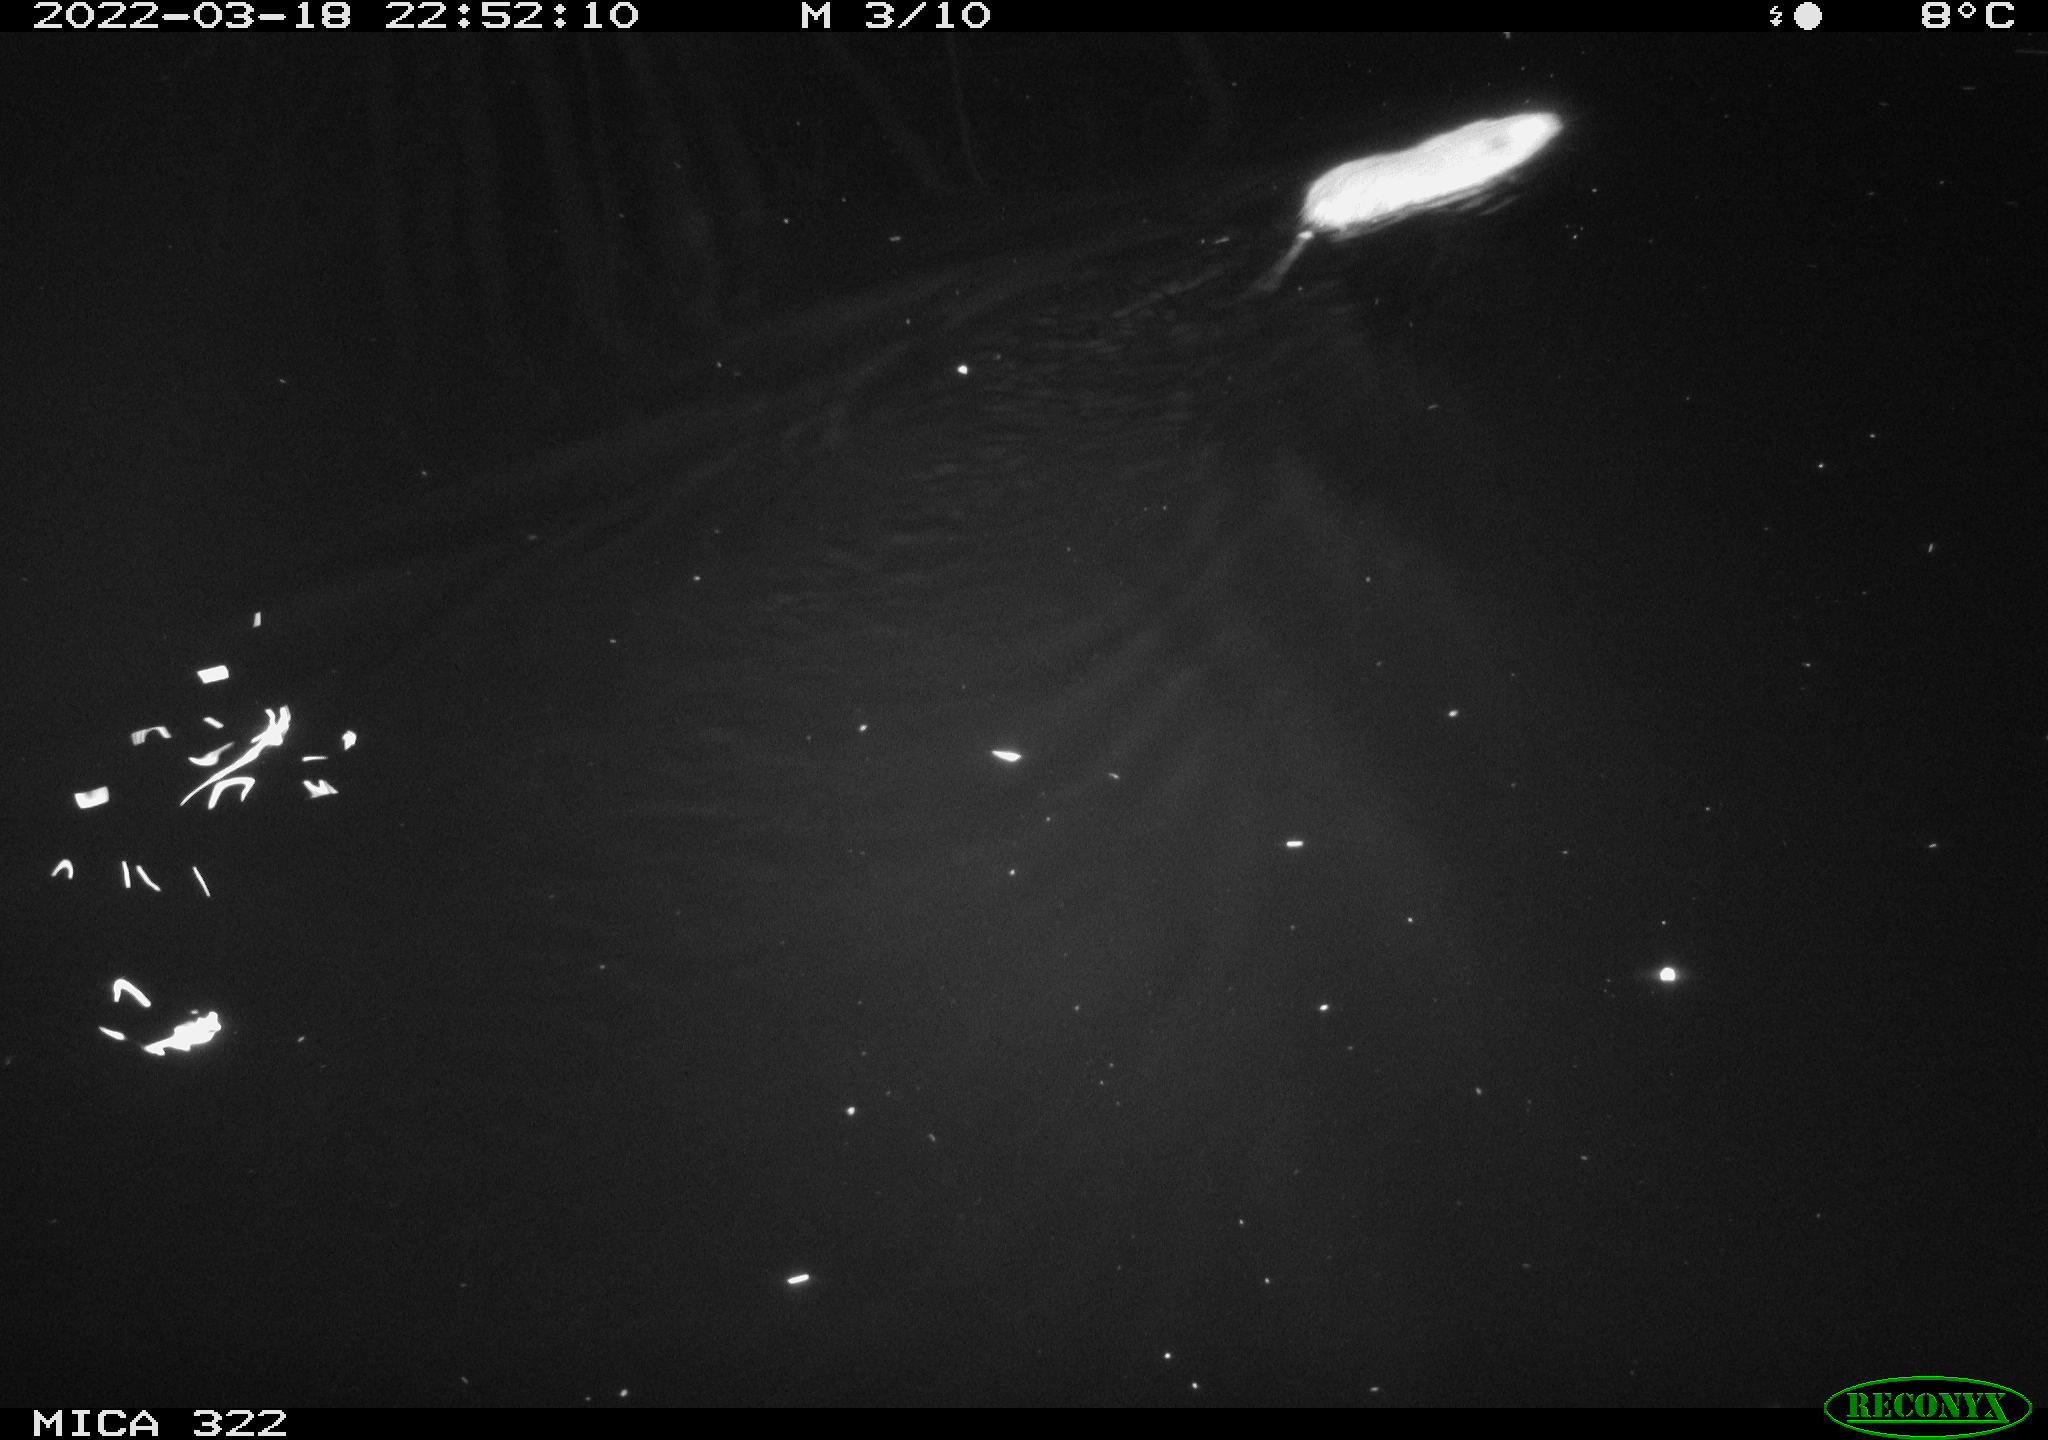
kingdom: Animalia
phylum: Chordata
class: Mammalia
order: Rodentia
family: Muridae
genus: Rattus
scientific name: Rattus norvegicus
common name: Brown rat
